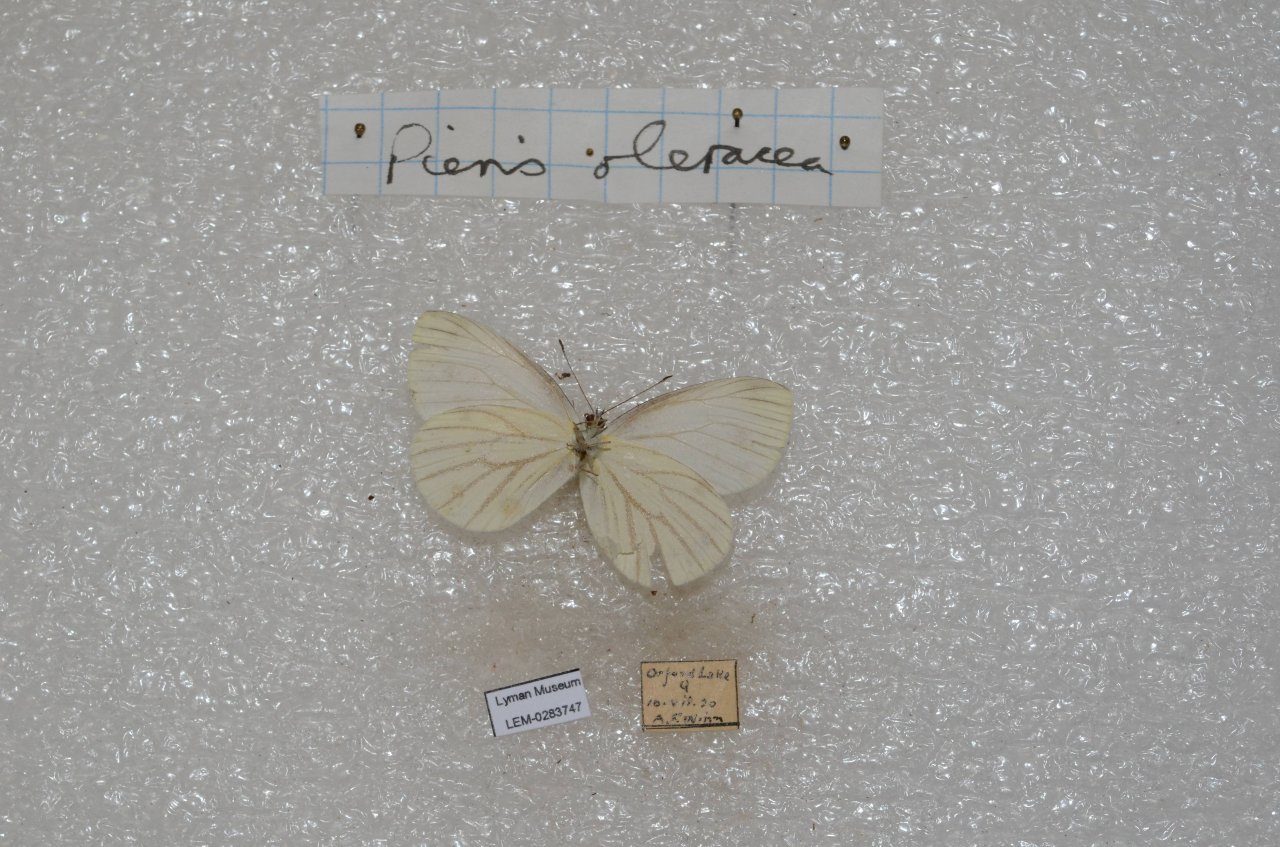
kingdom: Animalia
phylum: Arthropoda
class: Insecta
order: Lepidoptera
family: Pieridae
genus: Pieris
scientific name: Pieris oleracea
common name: Mustard White
